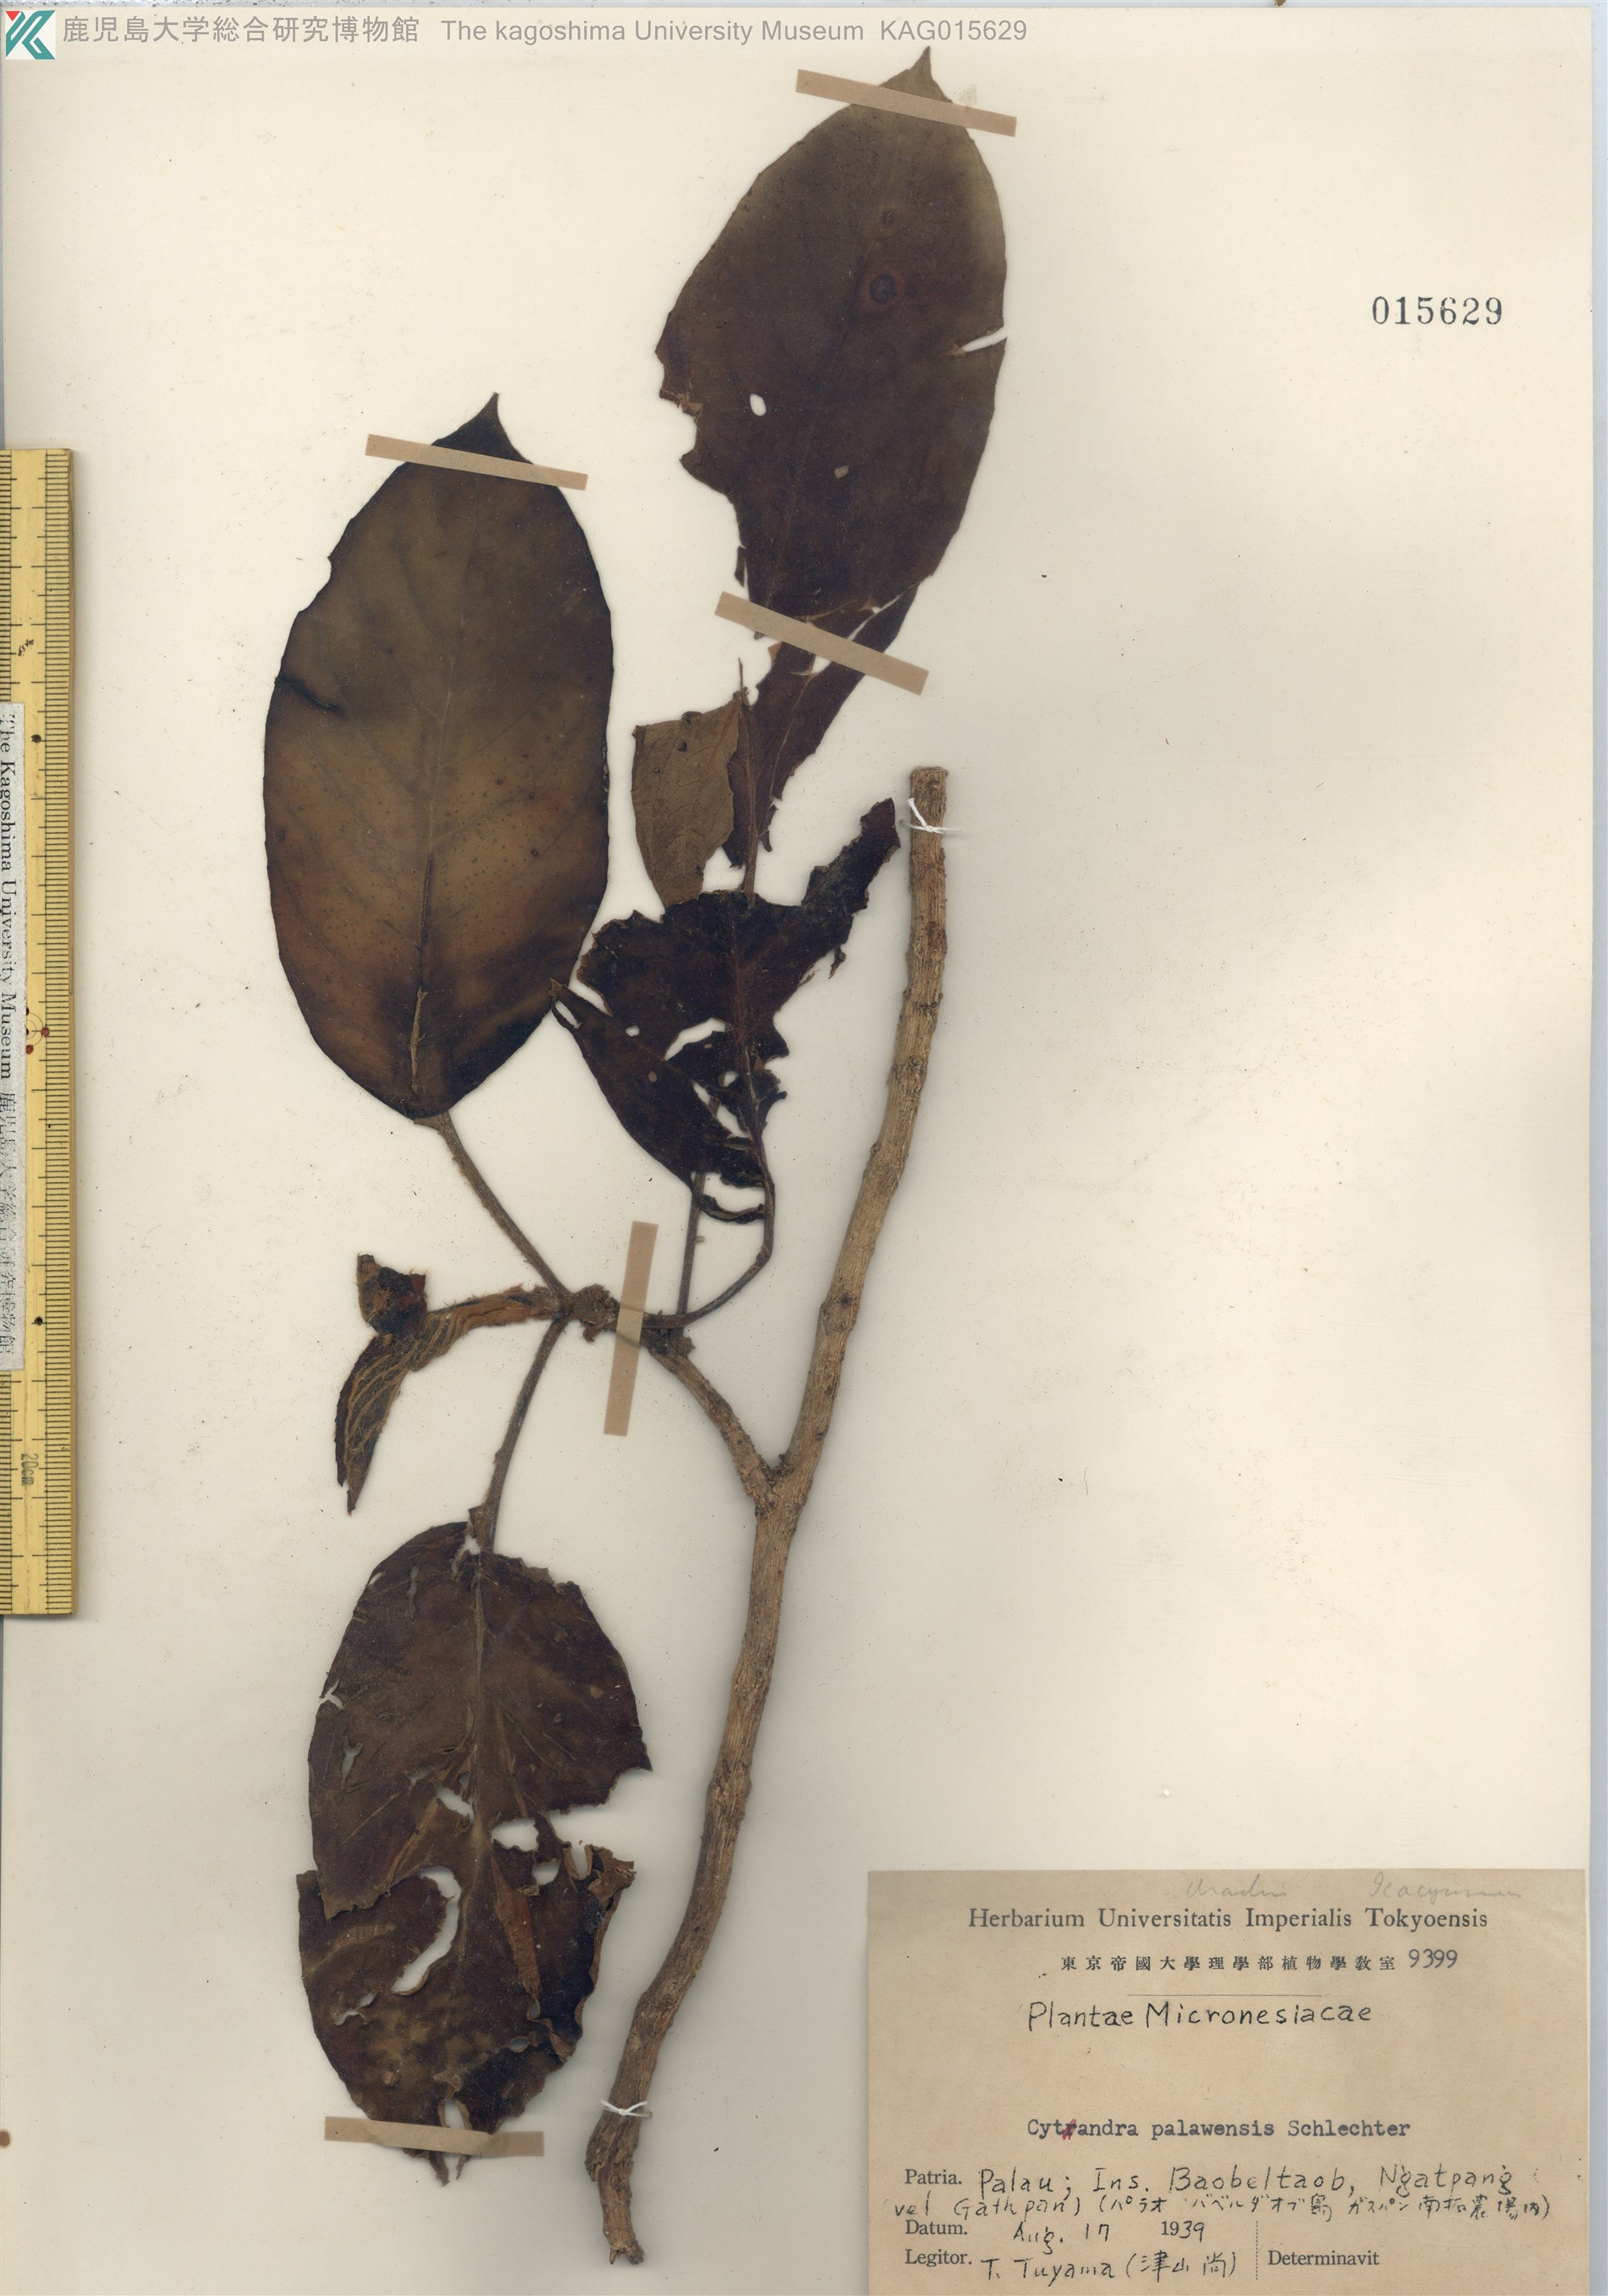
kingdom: Plantae
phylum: Tracheophyta
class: Magnoliopsida
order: Lamiales
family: Gesneriaceae
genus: Cyrtandra
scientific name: Cyrtandra palawensis
